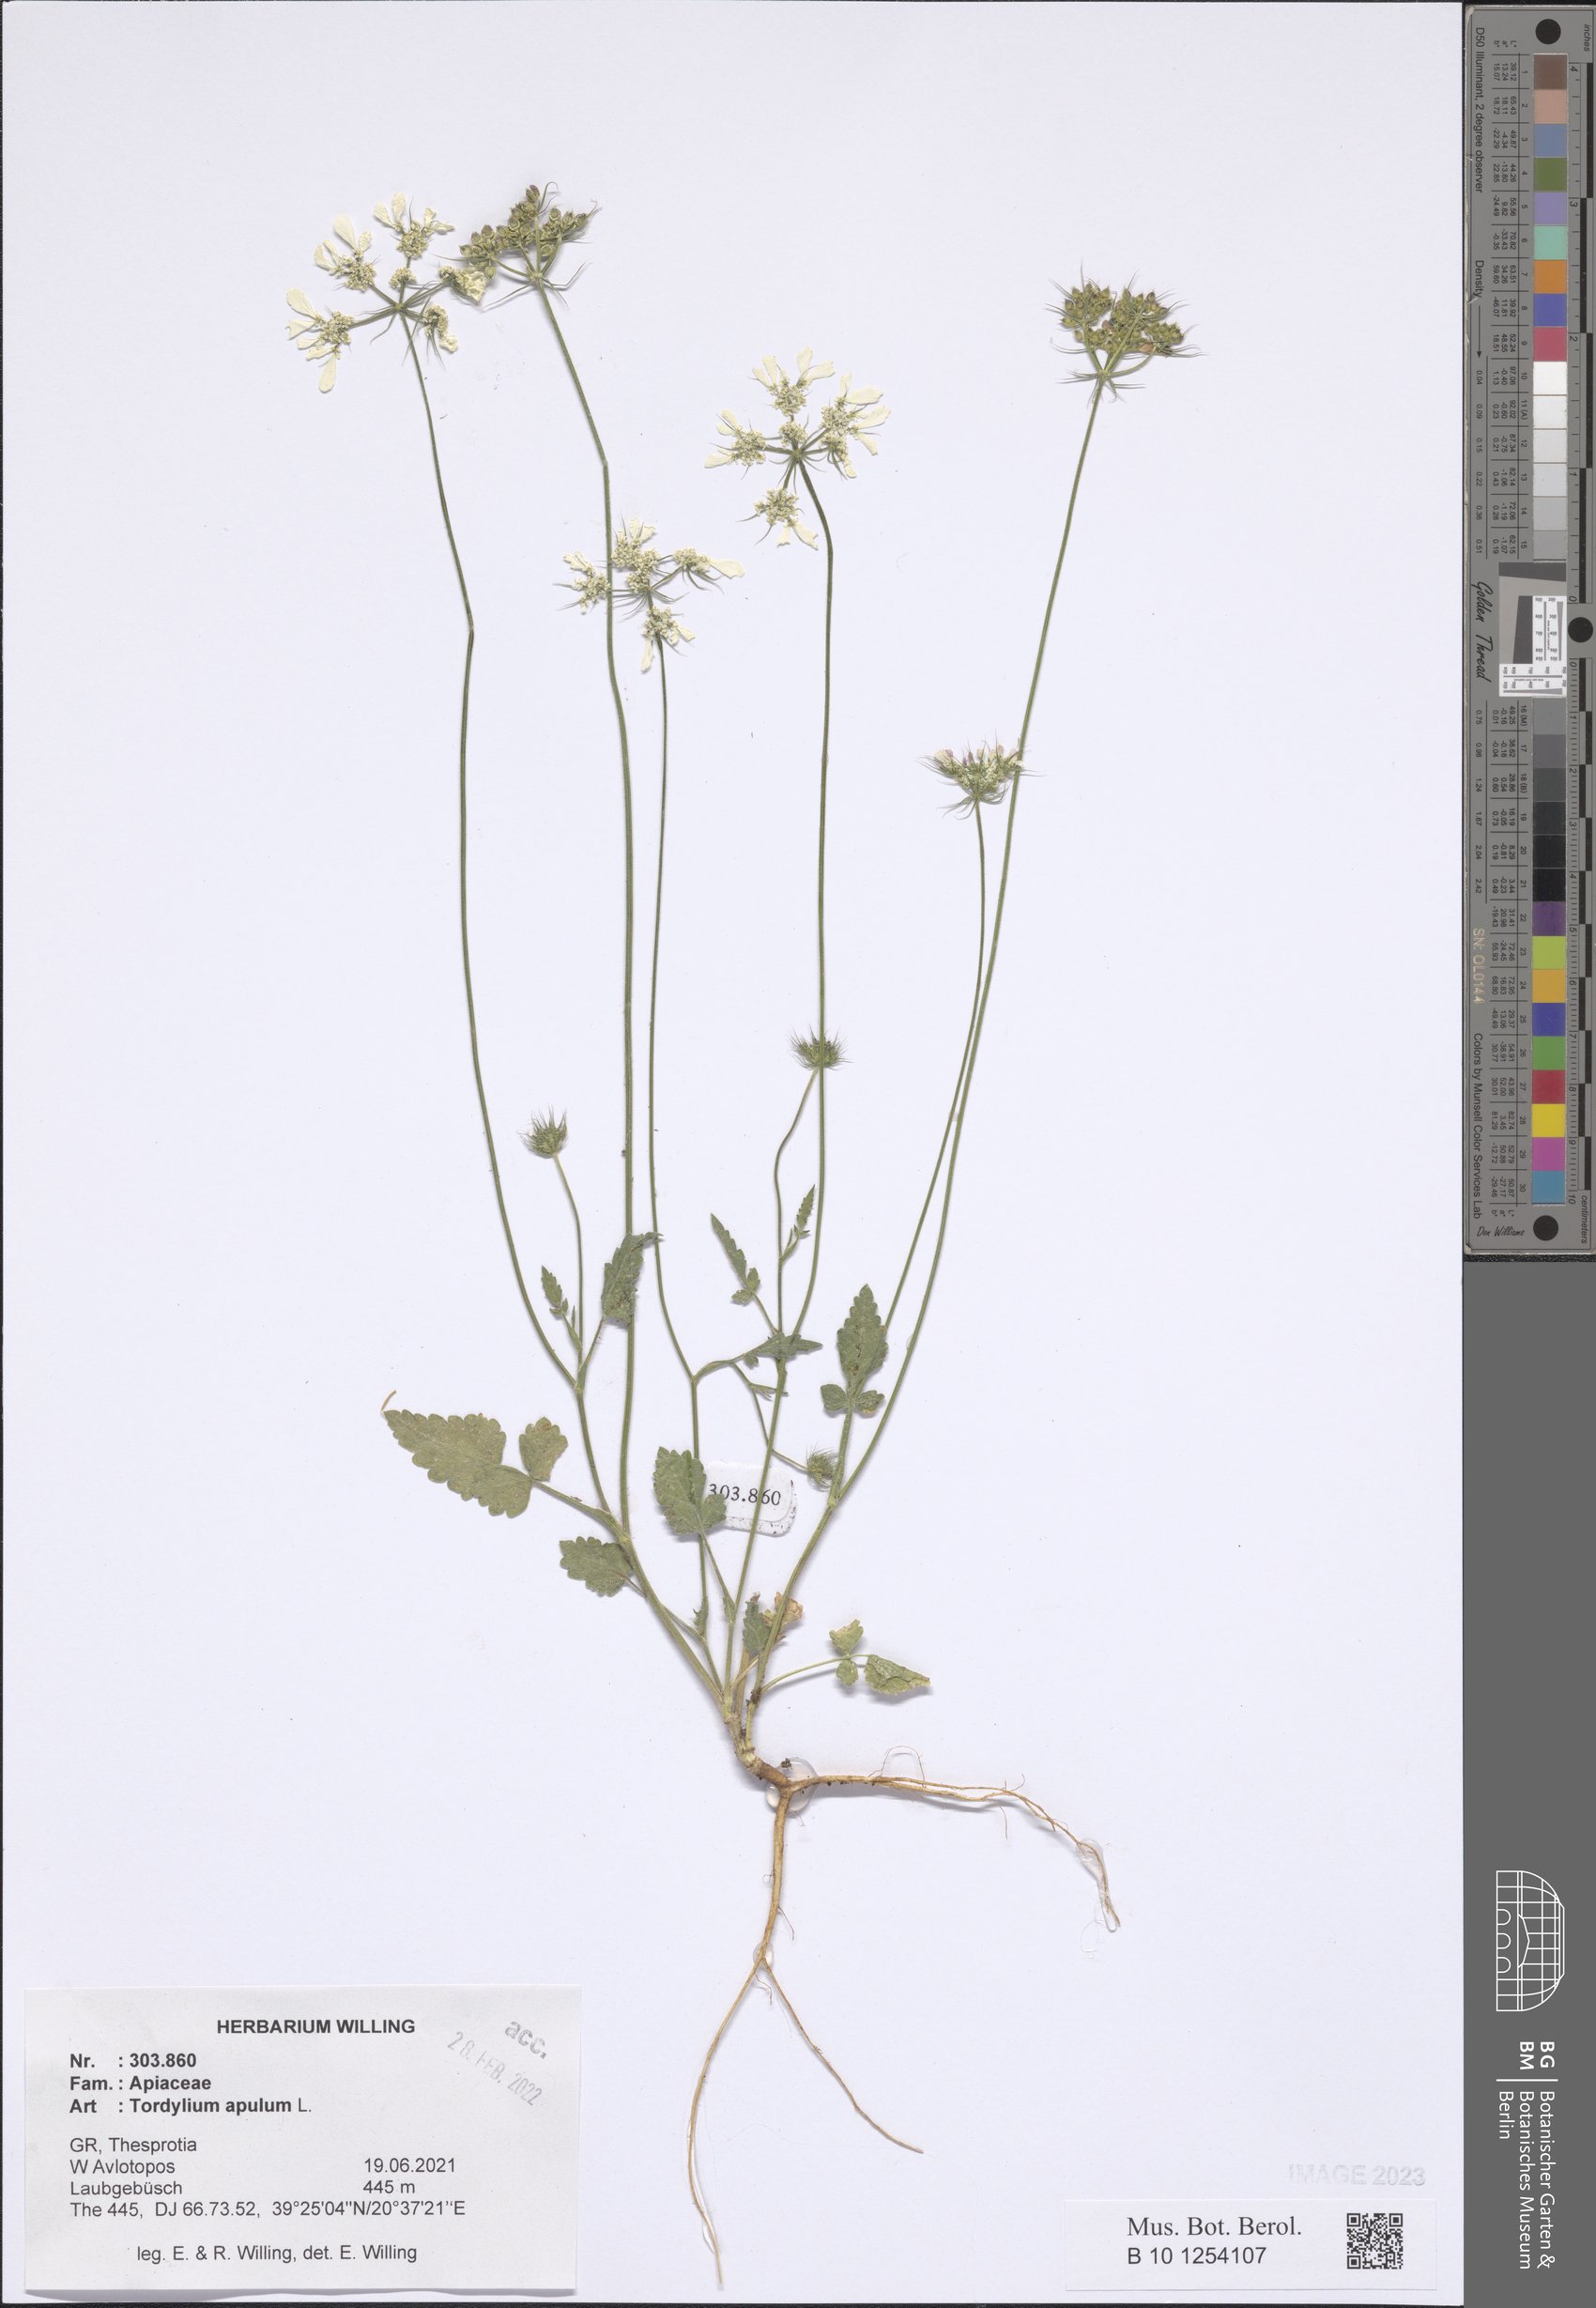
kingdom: Plantae
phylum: Tracheophyta
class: Magnoliopsida
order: Apiales
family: Apiaceae
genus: Tordylium
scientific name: Tordylium apulum
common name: Mediterranean hartwort
